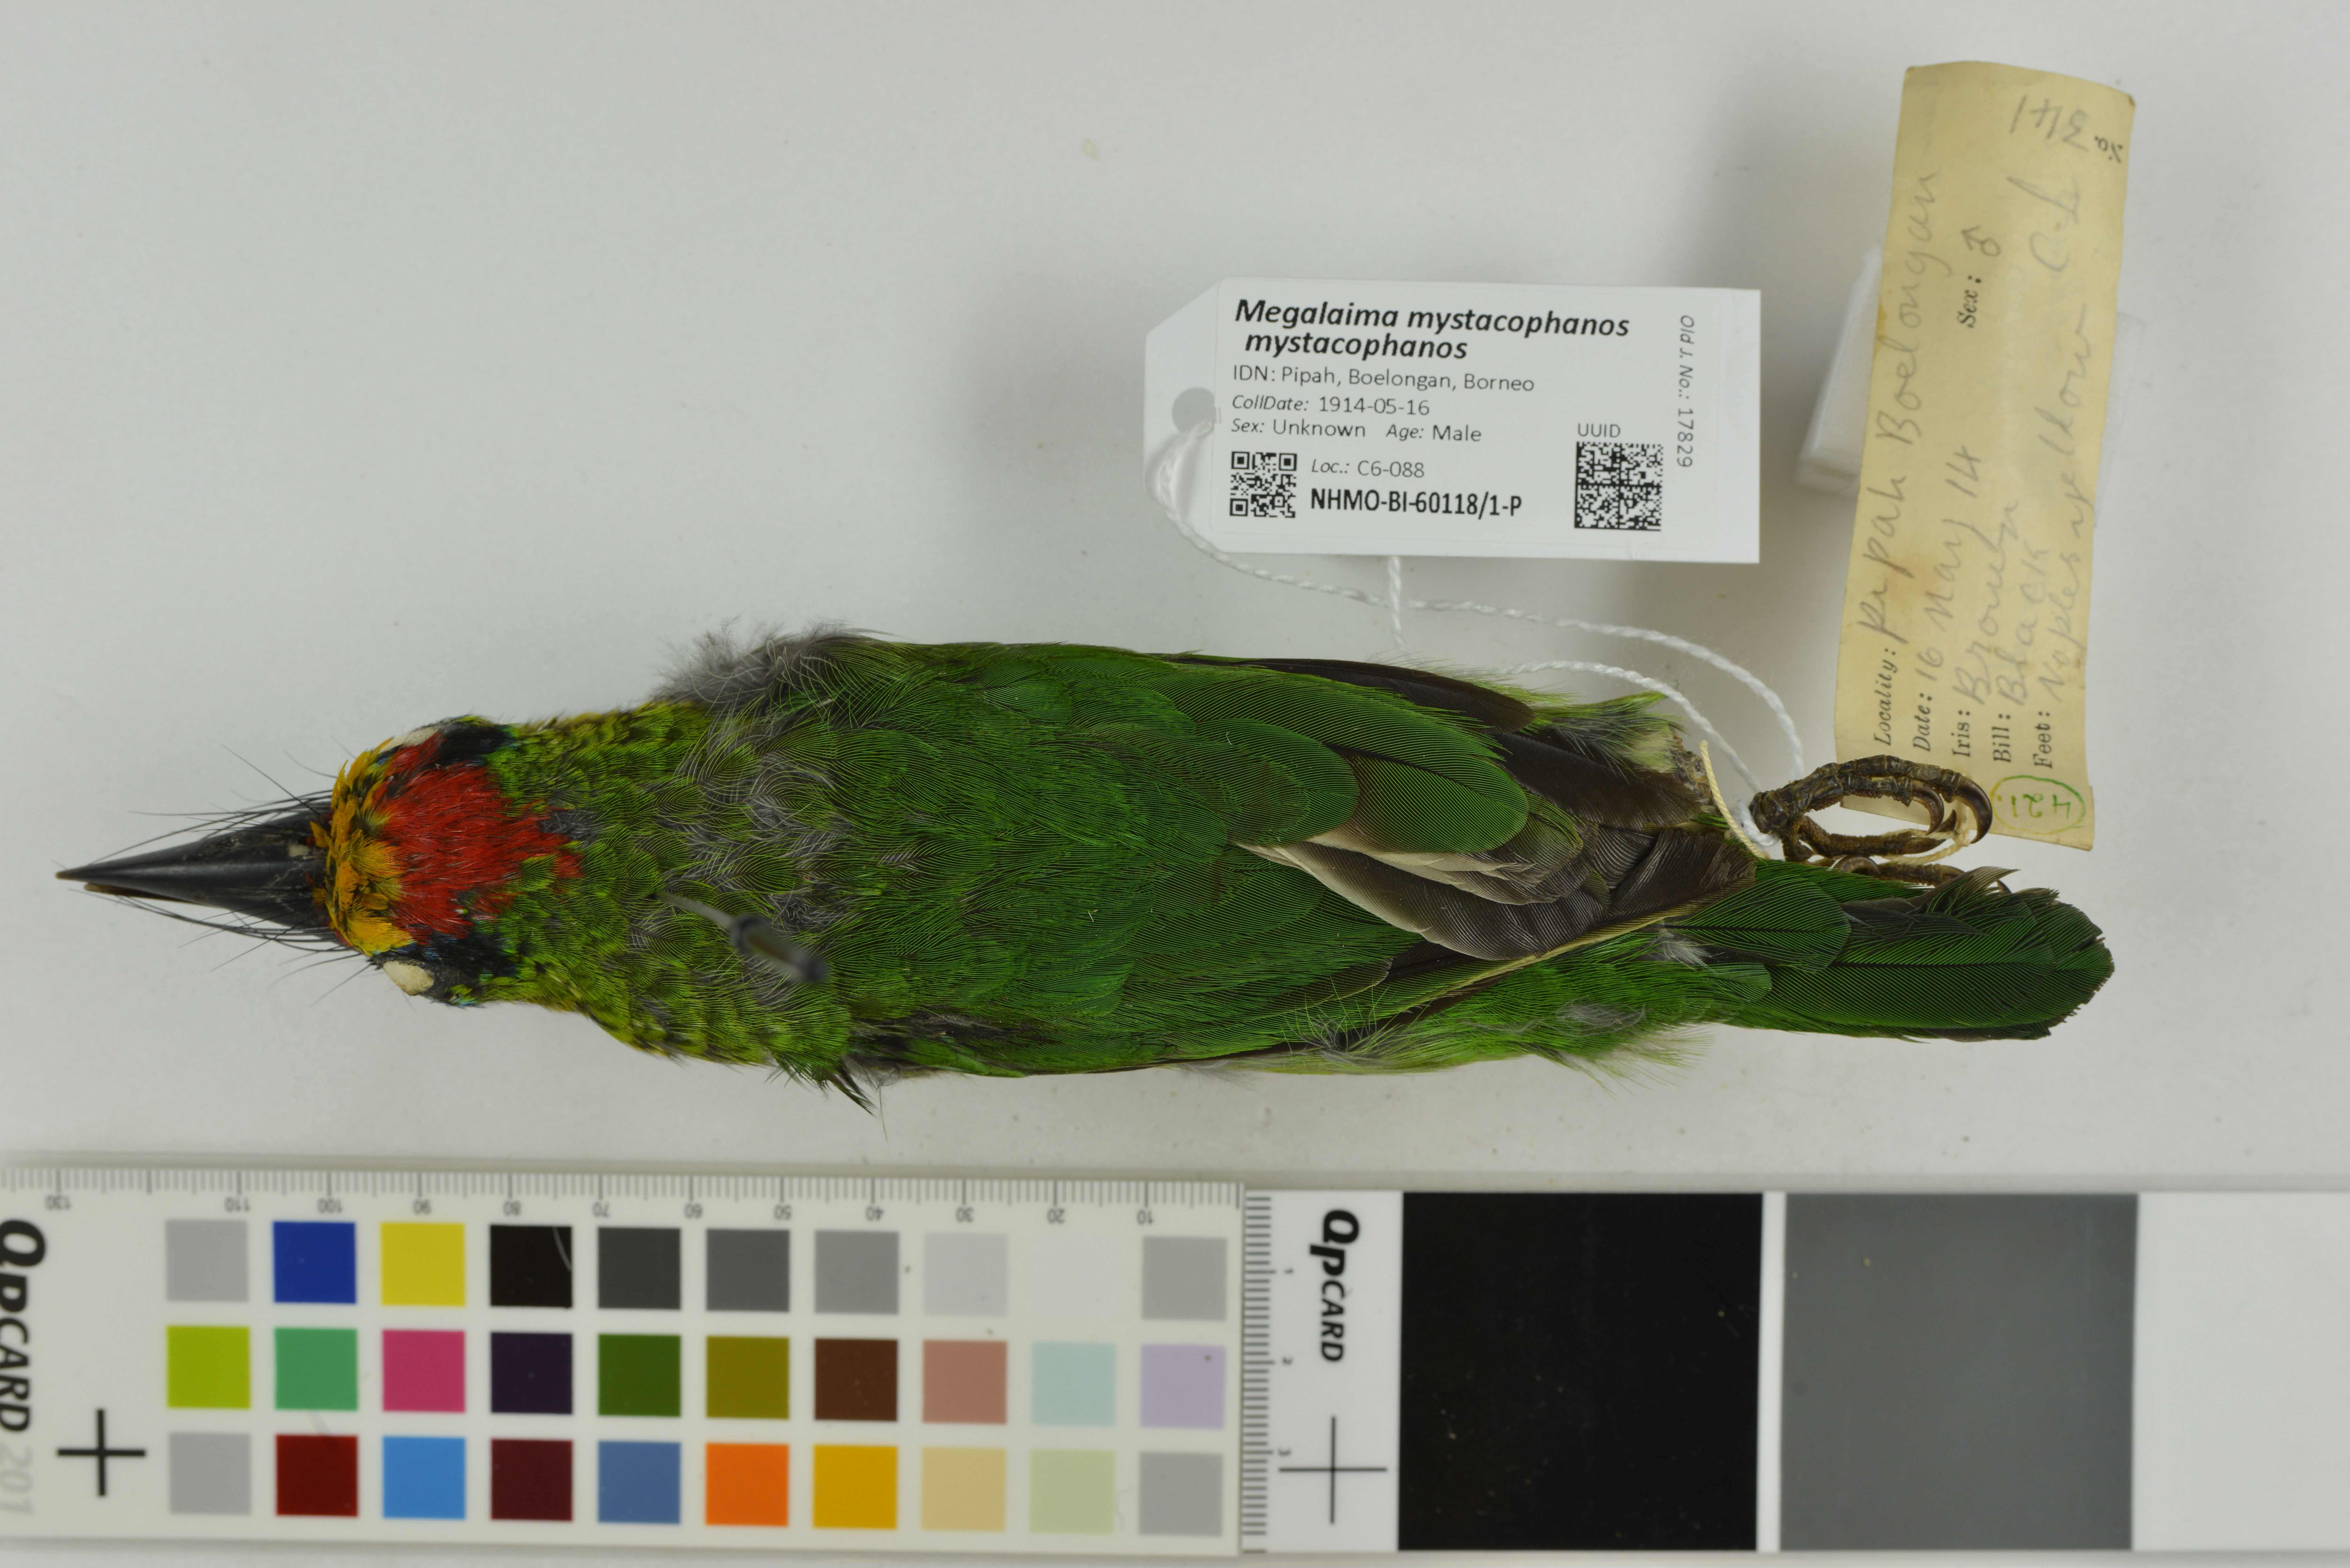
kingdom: Animalia
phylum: Chordata
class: Aves
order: Piciformes
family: Megalaimidae
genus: Psilopogon
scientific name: Psilopogon mystacophanos
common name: Red-throated barbet
